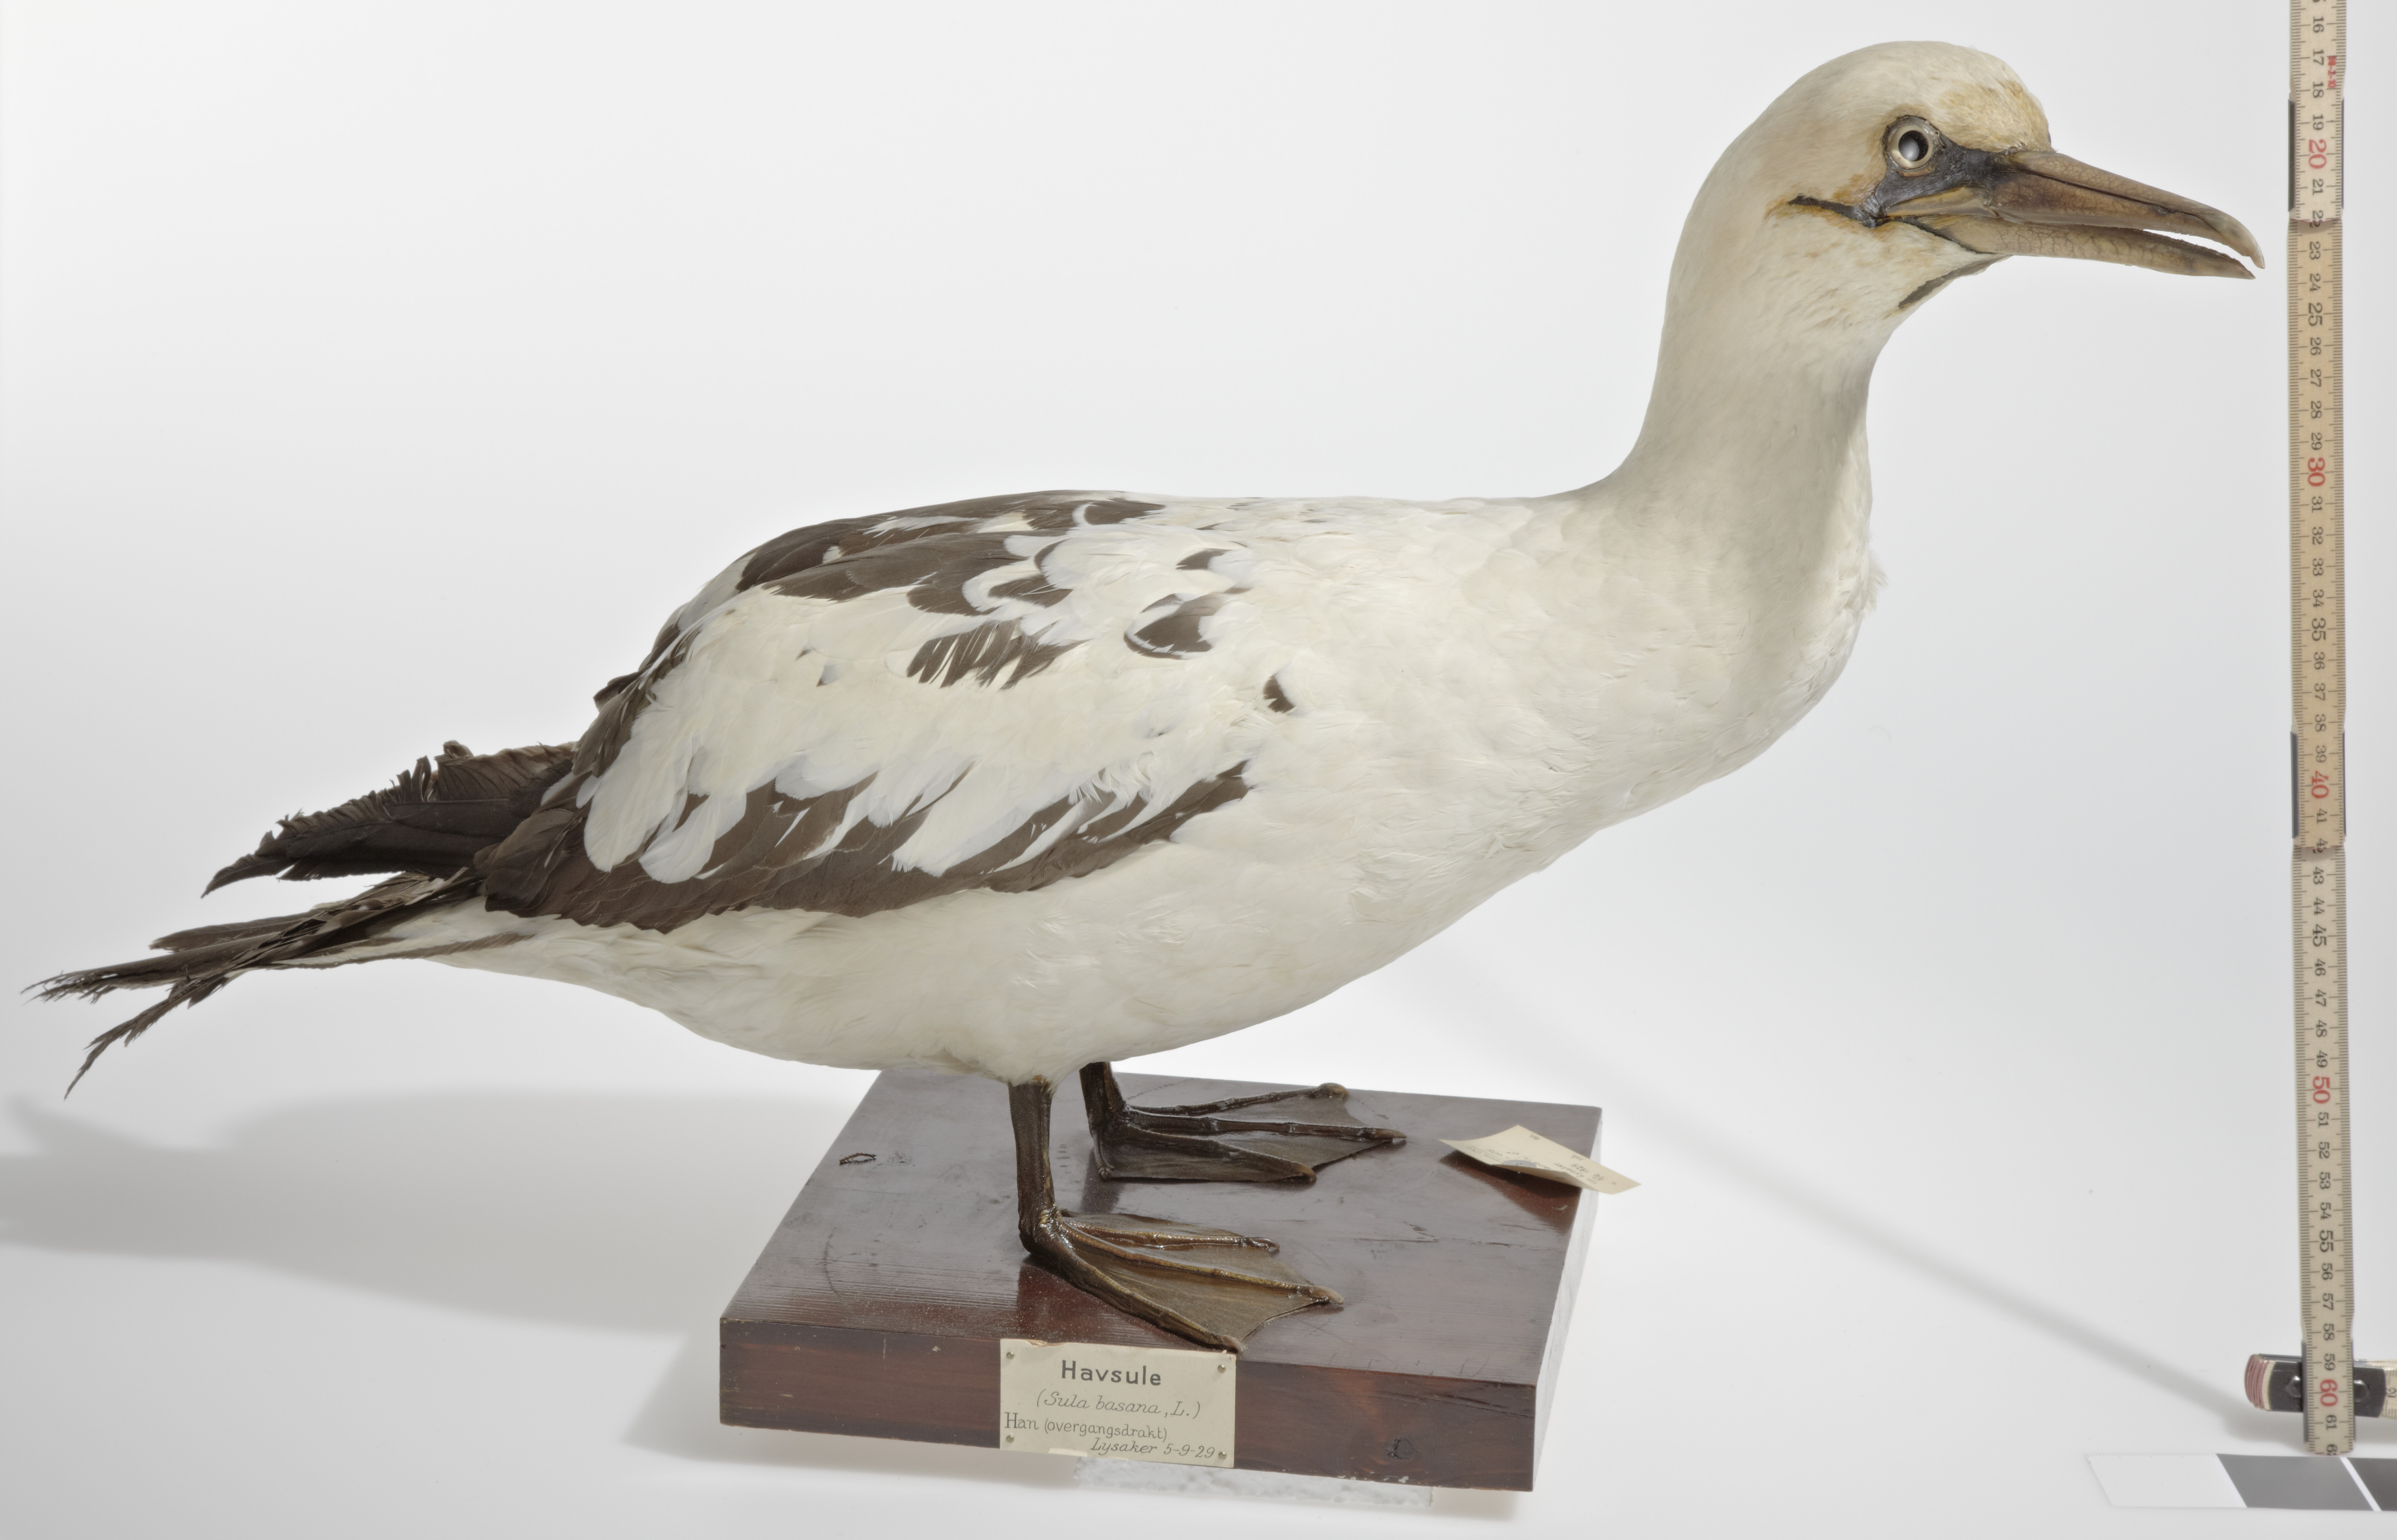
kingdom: Animalia
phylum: Chordata
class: Aves
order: Suliformes
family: Sulidae
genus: Morus
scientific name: Morus bassanus
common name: Northern gannet
